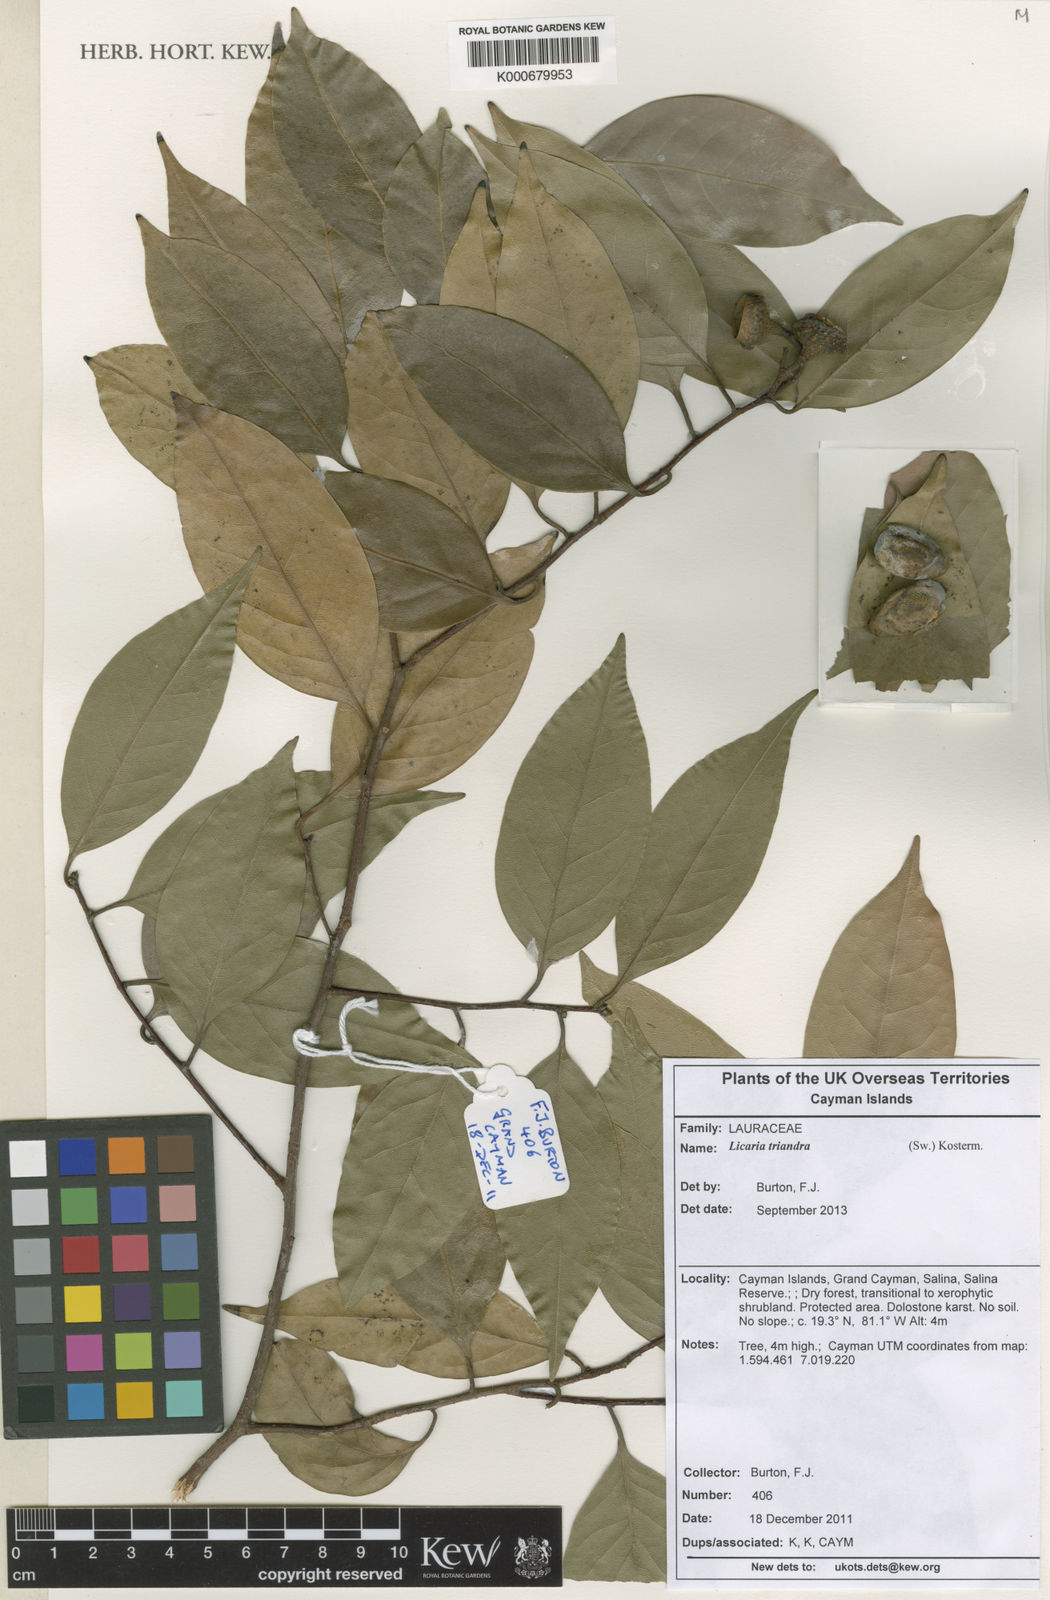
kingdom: Plantae
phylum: Tracheophyta
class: Magnoliopsida
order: Laurales
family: Lauraceae
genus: Licaria
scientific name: Licaria
